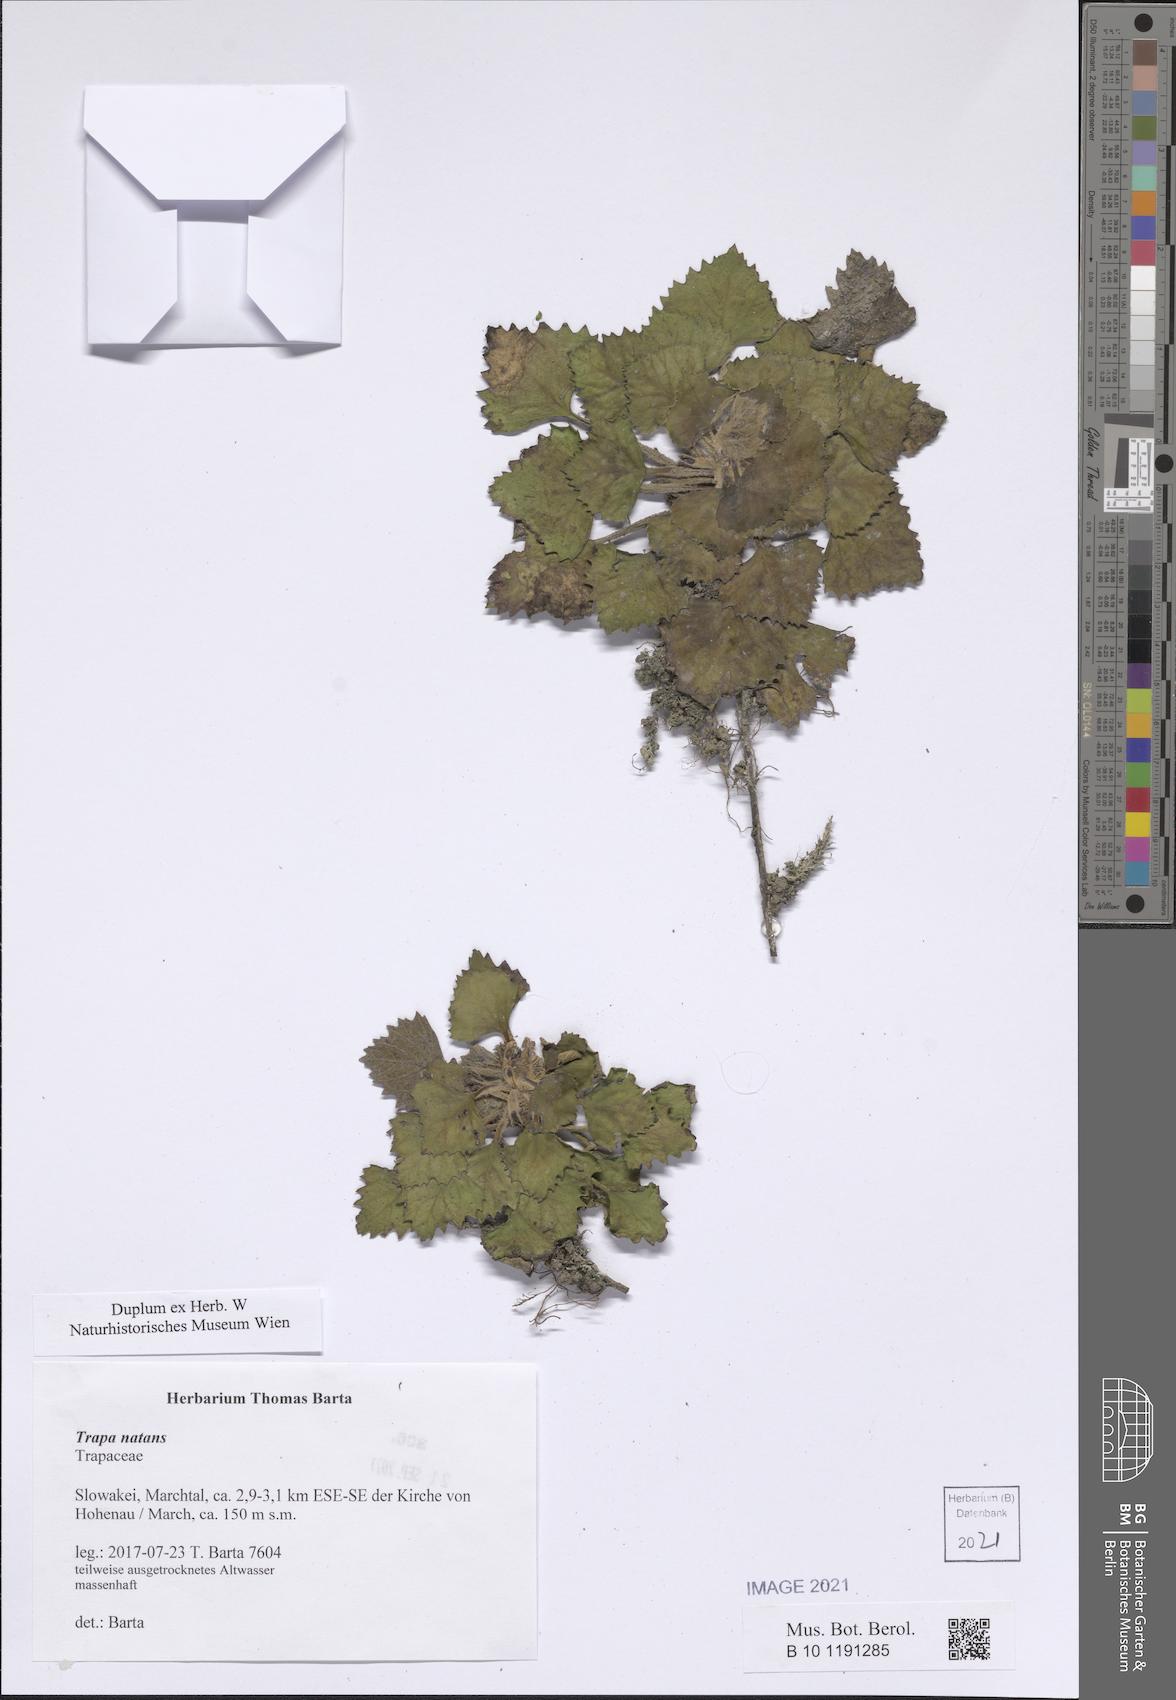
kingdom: Plantae
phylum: Tracheophyta
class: Magnoliopsida
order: Myrtales
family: Lythraceae
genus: Trapa
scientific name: Trapa natans
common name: Water chestnut
